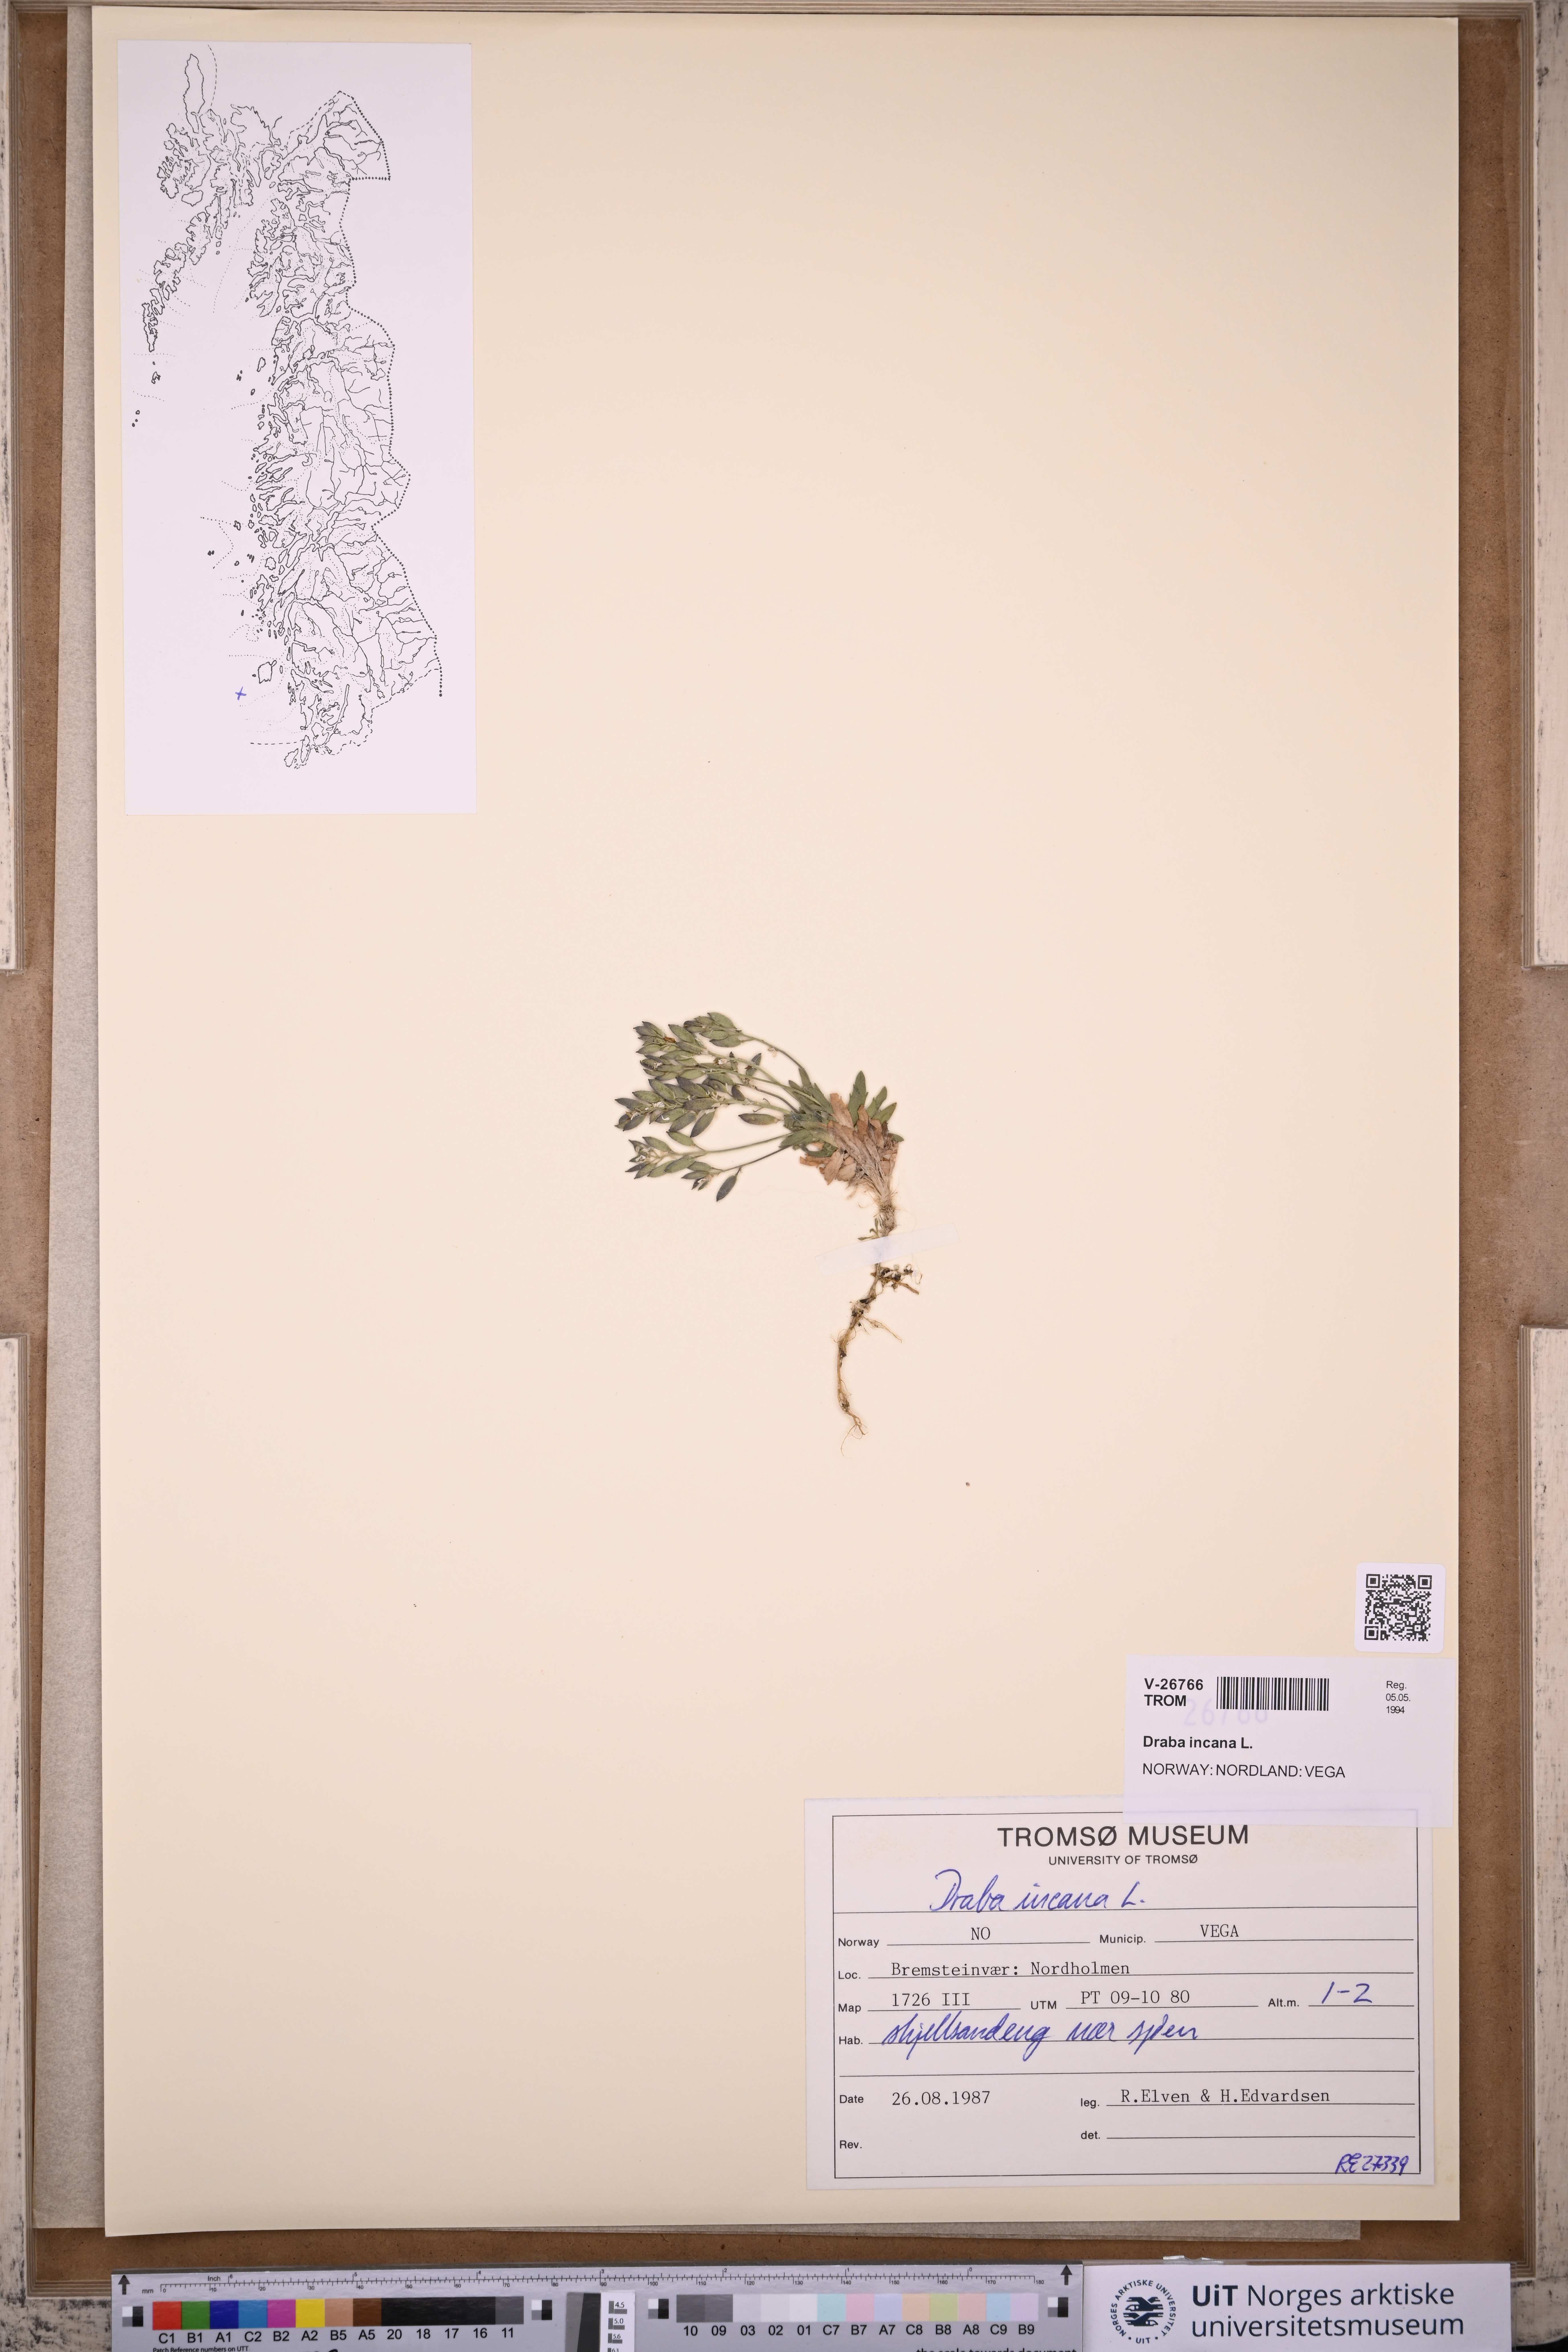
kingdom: Plantae
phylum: Tracheophyta
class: Magnoliopsida
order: Brassicales
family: Brassicaceae
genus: Draba
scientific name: Draba incana
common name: Hoary whitlow-grass
